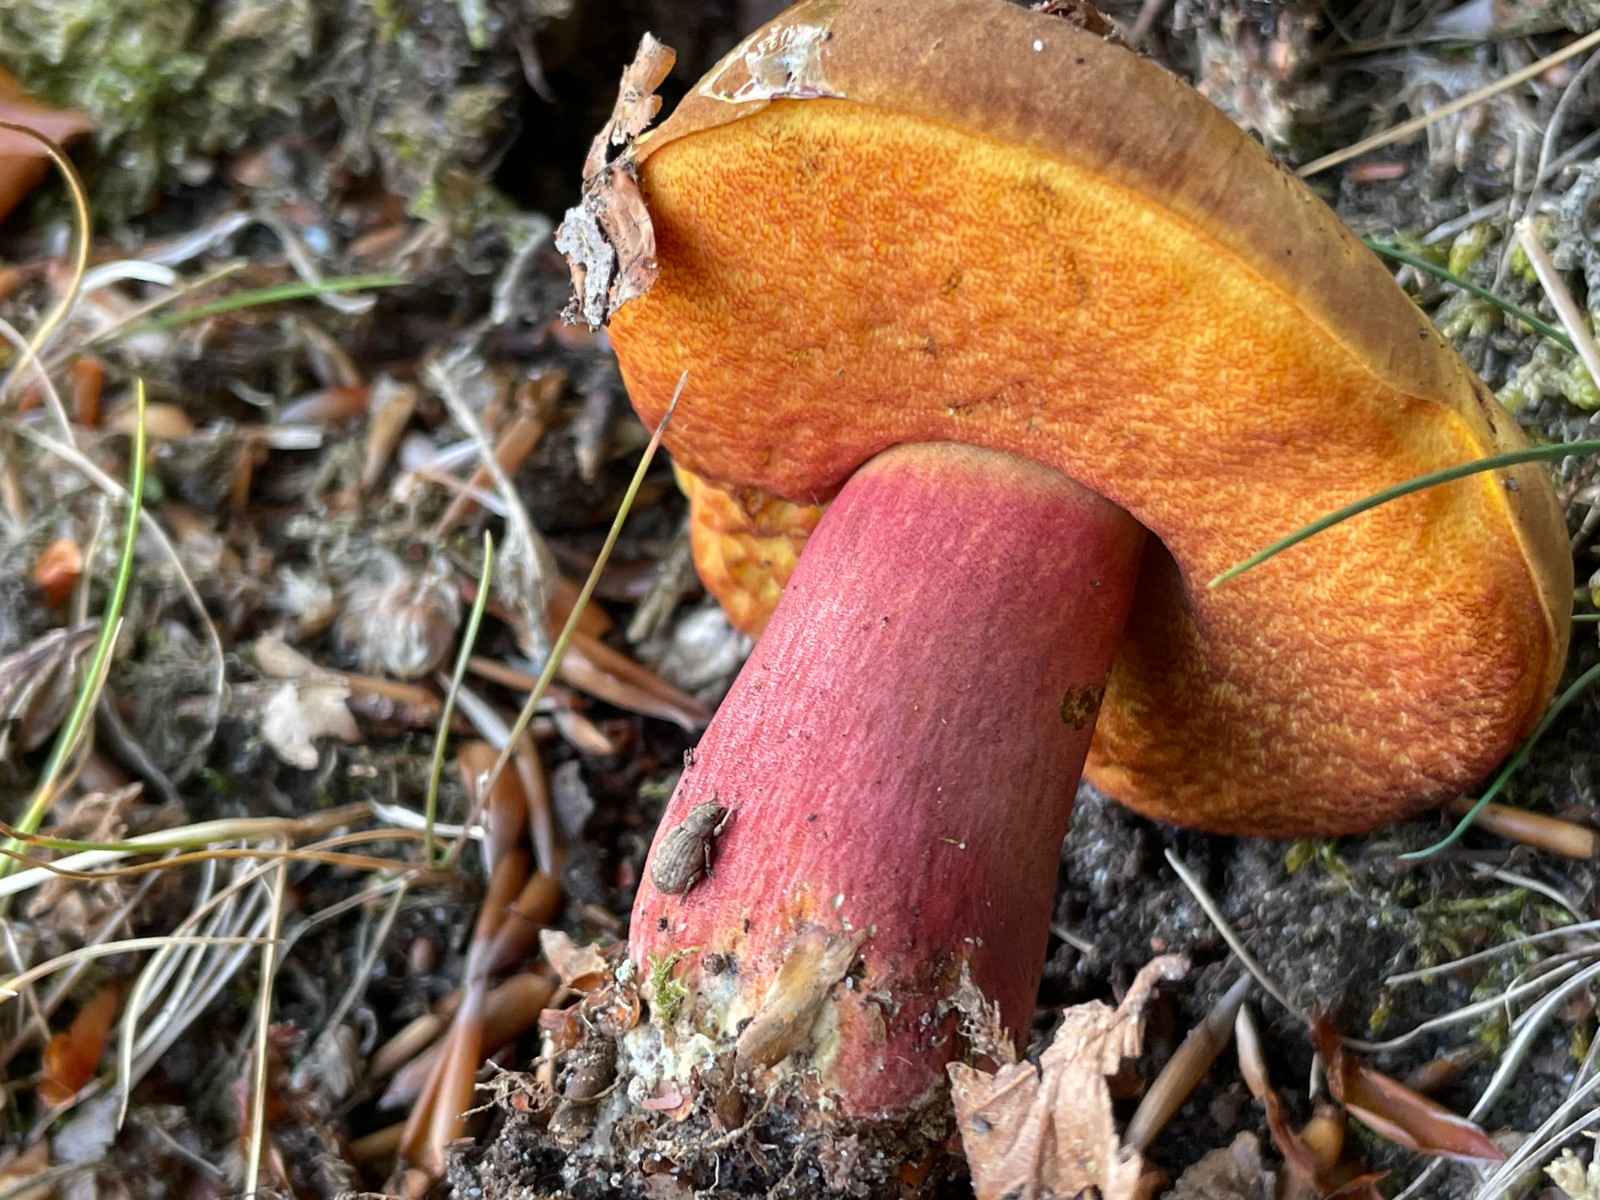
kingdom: Fungi
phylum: Basidiomycota
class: Agaricomycetes
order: Boletales
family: Boletaceae
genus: Neoboletus
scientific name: Neoboletus erythropus
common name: punktstokket indigorørhat
